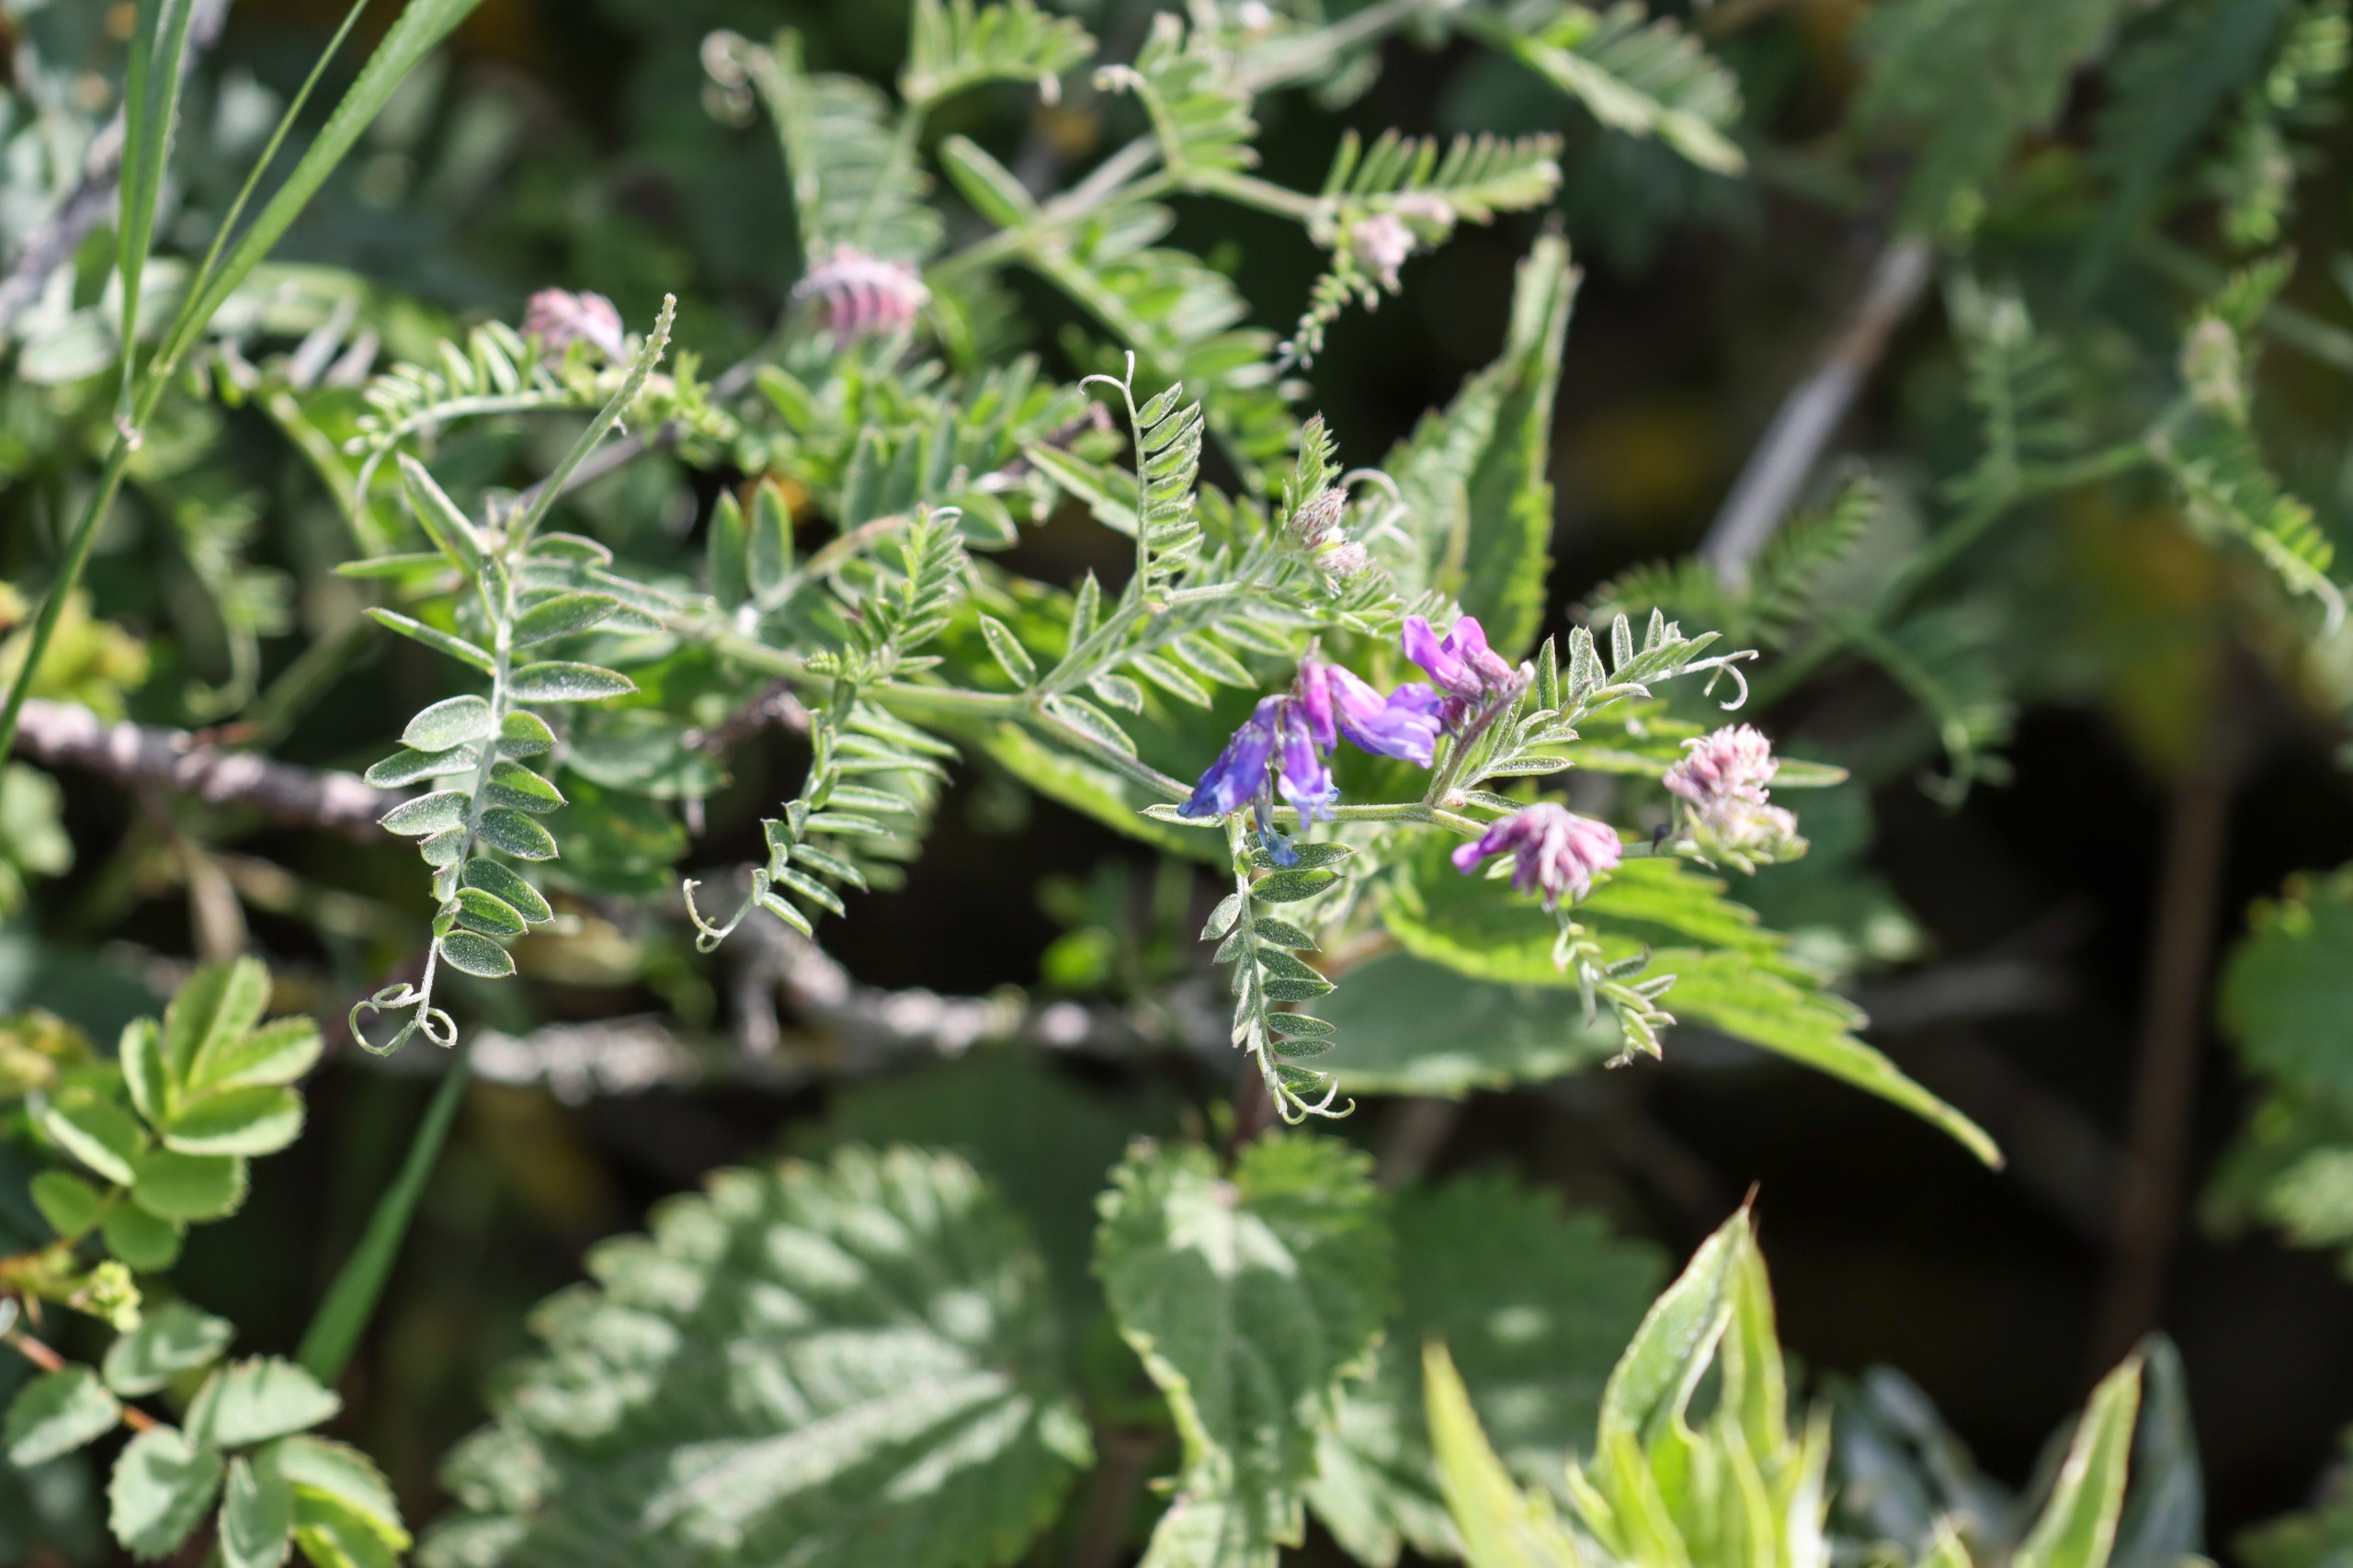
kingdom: Plantae
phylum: Tracheophyta
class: Magnoliopsida
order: Fabales
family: Fabaceae
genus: Vicia
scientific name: Vicia cracca
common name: Muse-vikke
